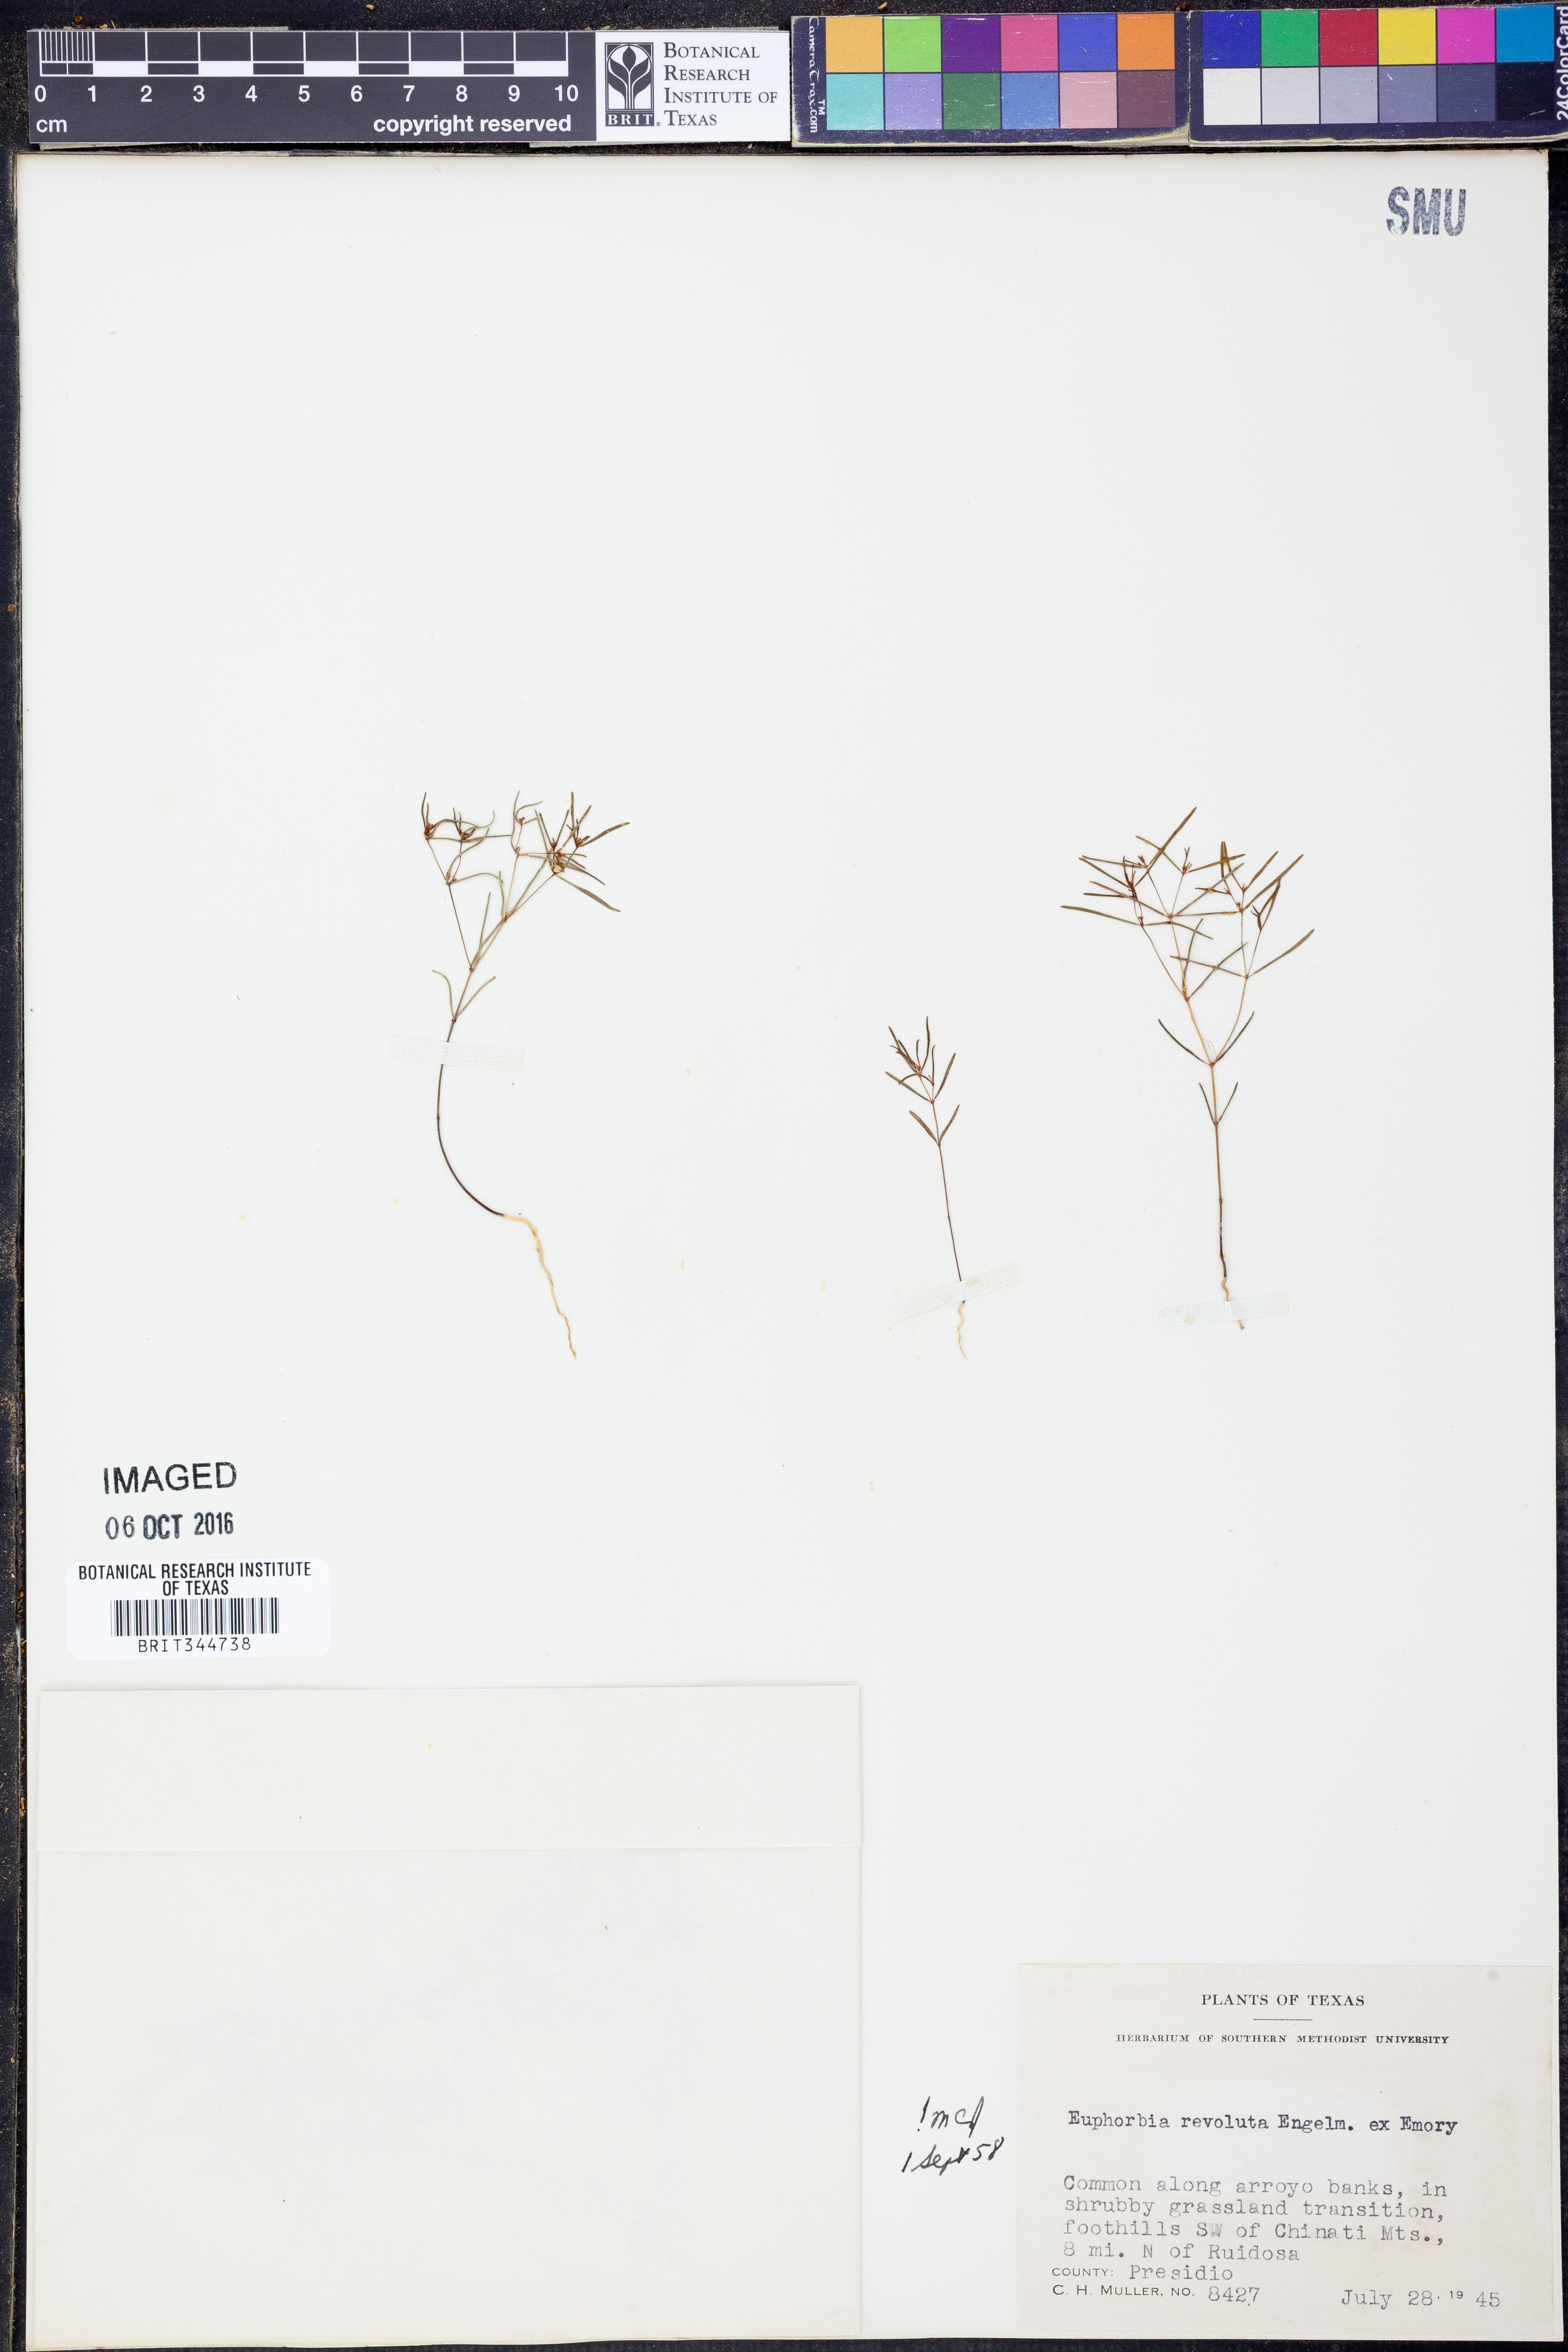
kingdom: Plantae
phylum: Tracheophyta
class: Magnoliopsida
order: Malpighiales
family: Euphorbiaceae
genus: Euphorbia
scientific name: Euphorbia revoluta
